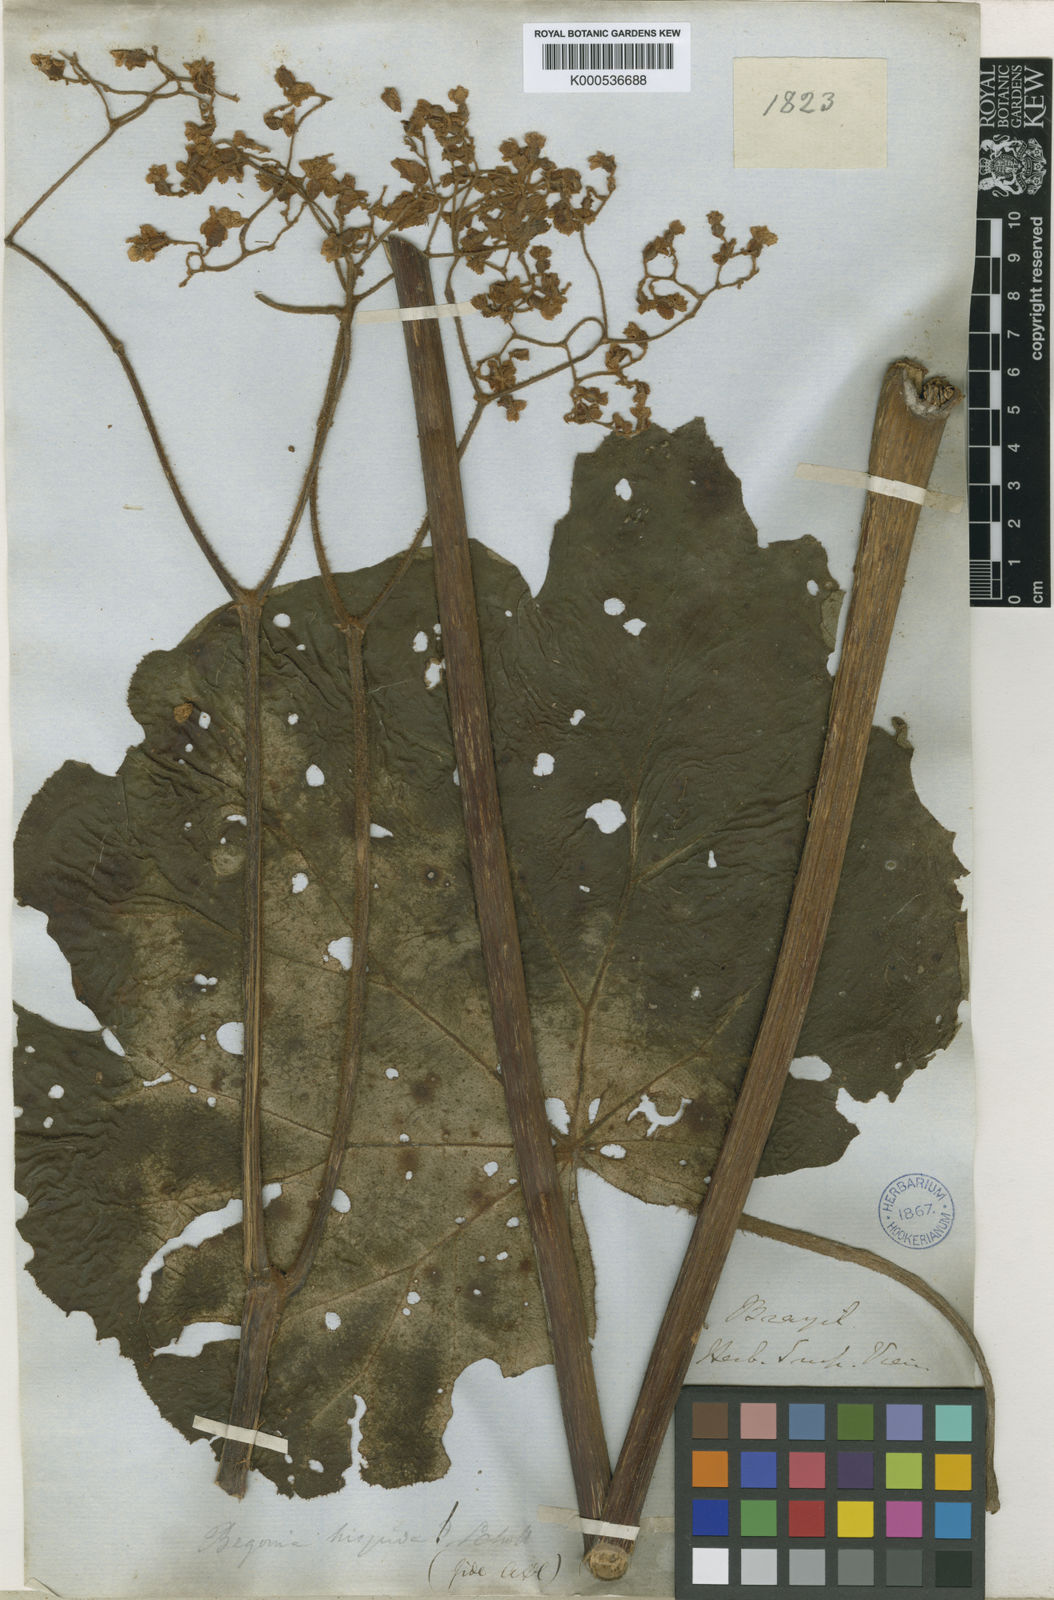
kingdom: Plantae
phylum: Tracheophyta
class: Magnoliopsida
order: Cucurbitales
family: Begoniaceae
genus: Begonia
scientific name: Begonia
